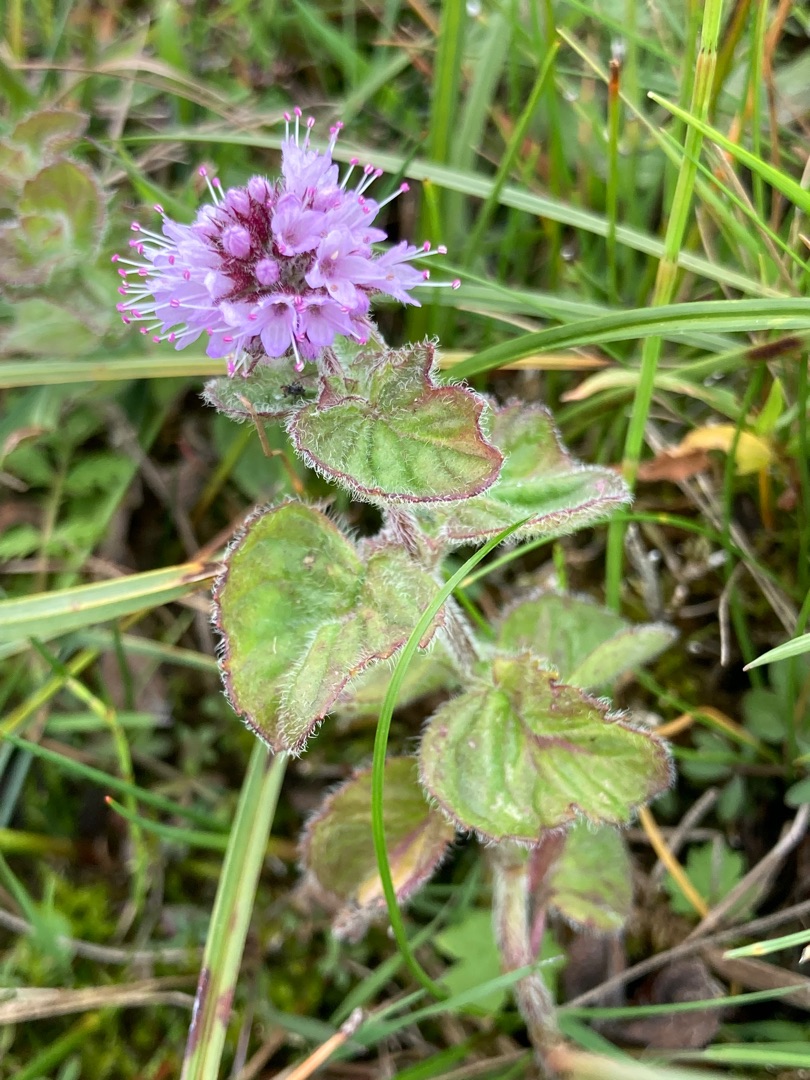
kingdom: Plantae
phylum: Tracheophyta
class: Magnoliopsida
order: Lamiales
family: Lamiaceae
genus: Mentha
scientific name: Mentha aquatica
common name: Vand-mynte
